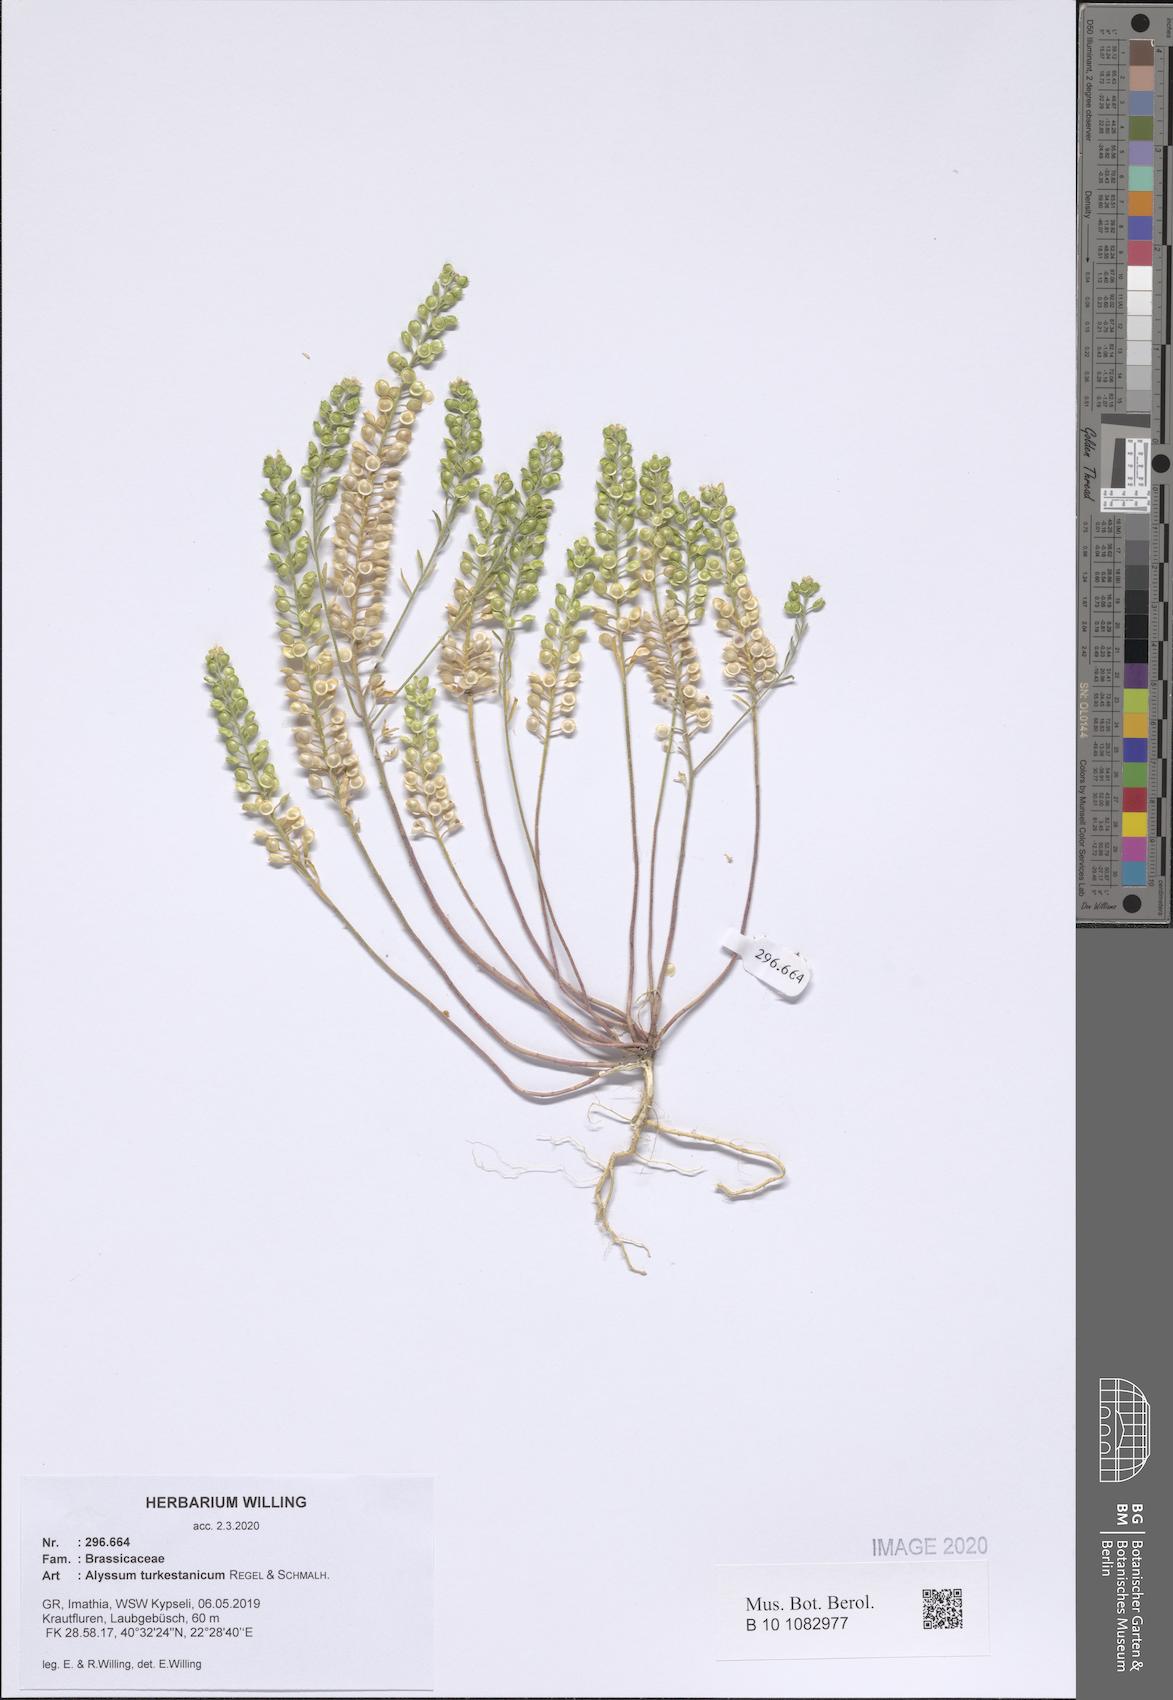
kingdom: Plantae
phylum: Tracheophyta
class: Magnoliopsida
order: Brassicales
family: Brassicaceae
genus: Alyssum
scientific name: Alyssum turkestanicum
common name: Desert alyssum
